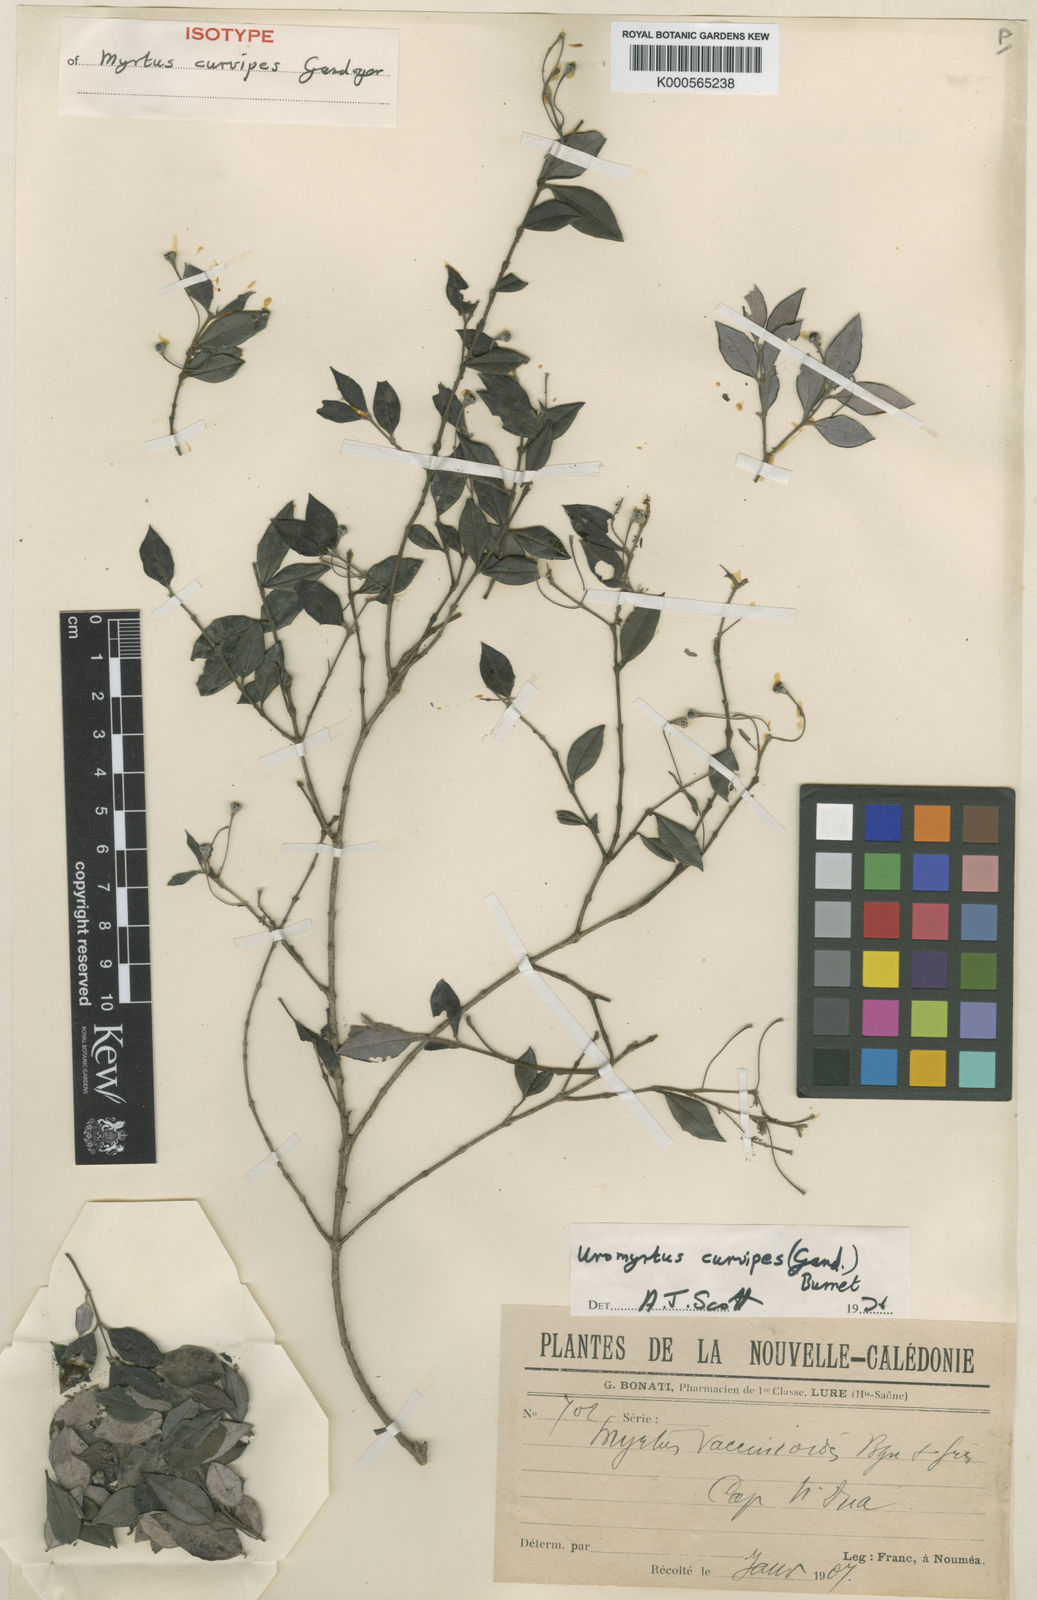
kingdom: Plantae
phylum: Tracheophyta
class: Magnoliopsida
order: Myrtales
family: Myrtaceae
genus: Uromyrtus
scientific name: Uromyrtus billardierei
